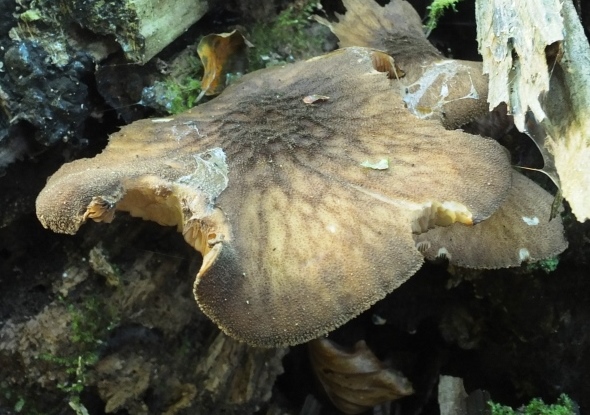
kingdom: Fungi
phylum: Basidiomycota
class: Agaricomycetes
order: Agaricales
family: Pluteaceae
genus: Pluteus
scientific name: Pluteus umbrosus
